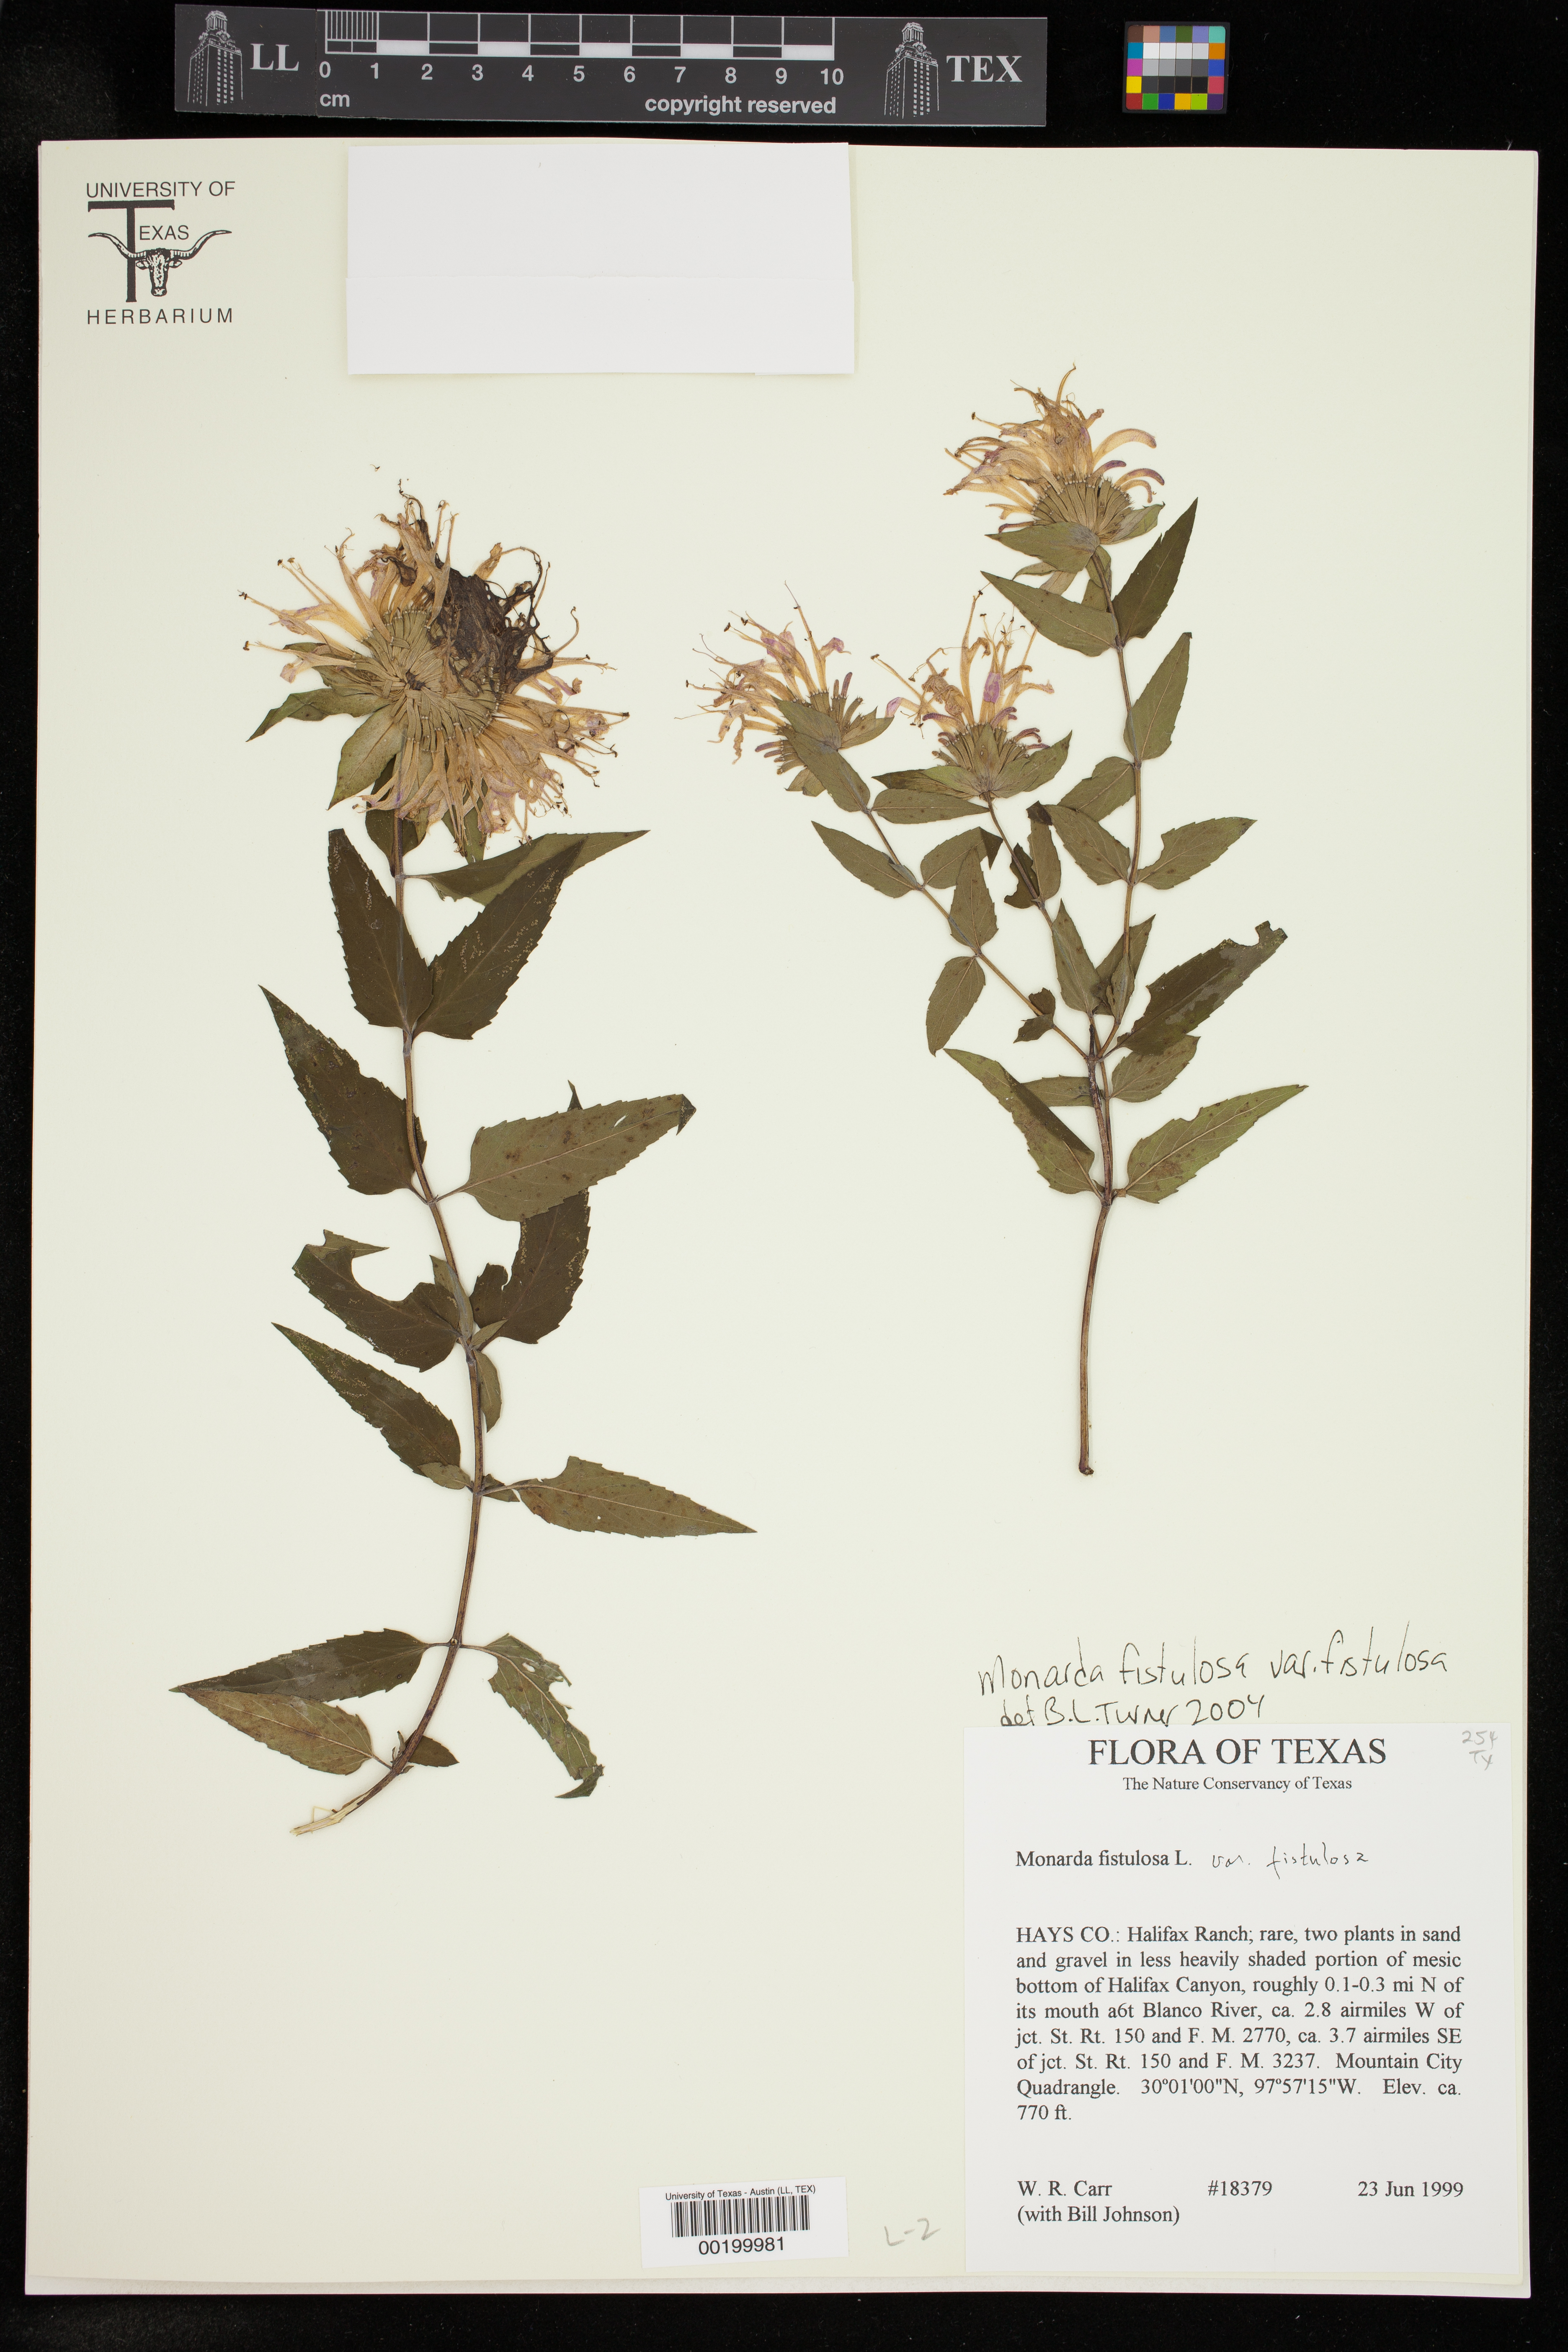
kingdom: Plantae
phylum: Tracheophyta
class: Magnoliopsida
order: Lamiales
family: Lamiaceae
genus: Monarda
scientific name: Monarda fistulosa
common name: Purple beebalm
